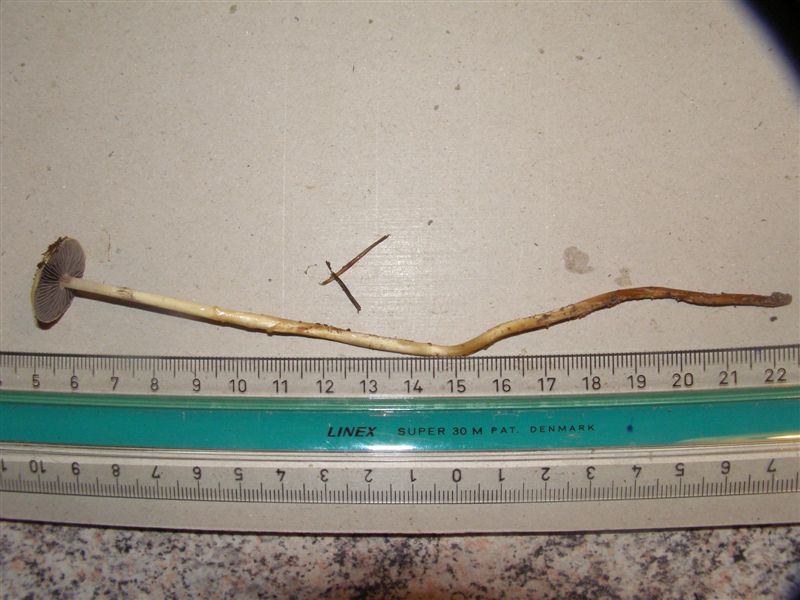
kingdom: Fungi
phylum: Basidiomycota
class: Agaricomycetes
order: Agaricales
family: Strophariaceae
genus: Protostropharia
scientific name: Protostropharia semiglobata
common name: halvkugleformet bredblad
